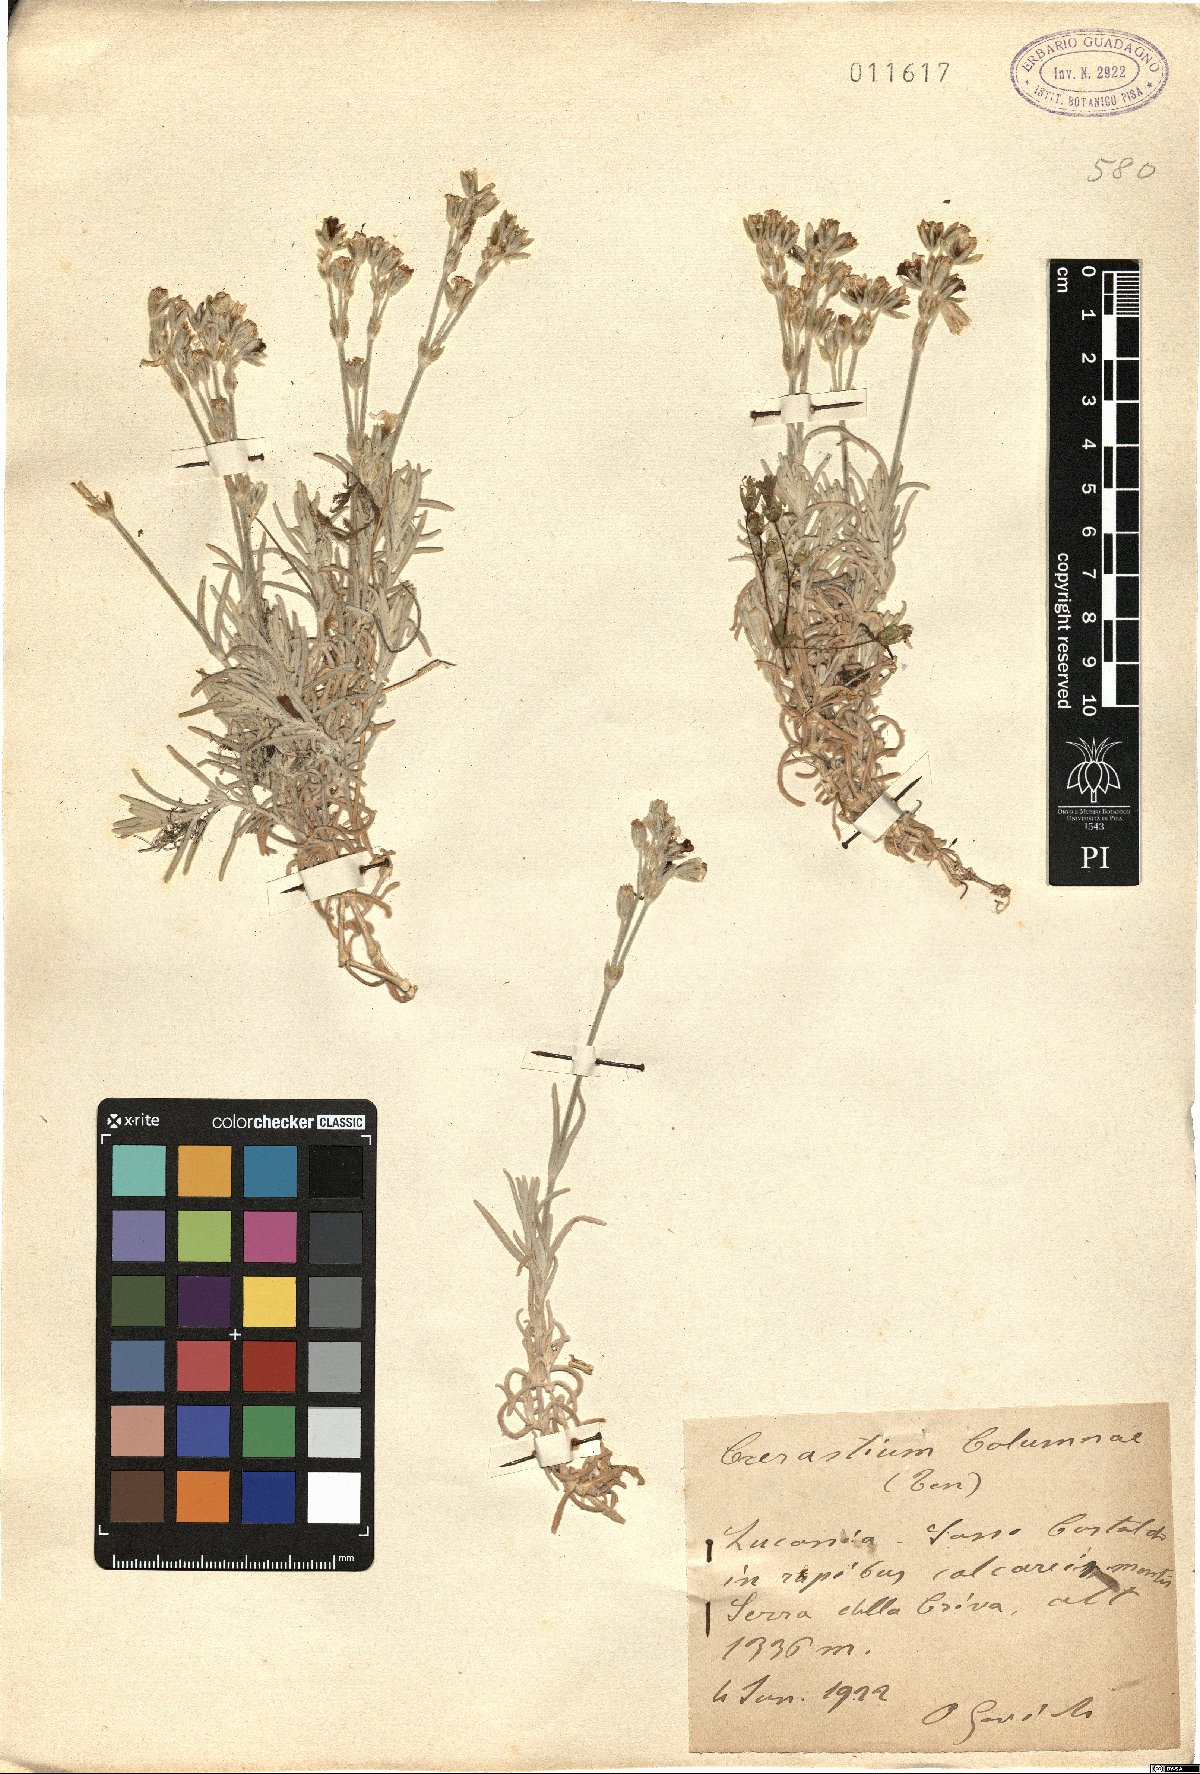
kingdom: Plantae
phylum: Tracheophyta
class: Magnoliopsida
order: Caryophyllales
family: Caryophyllaceae
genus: Cerastium
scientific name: Cerastium tomentosum
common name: Snow-in-summer
